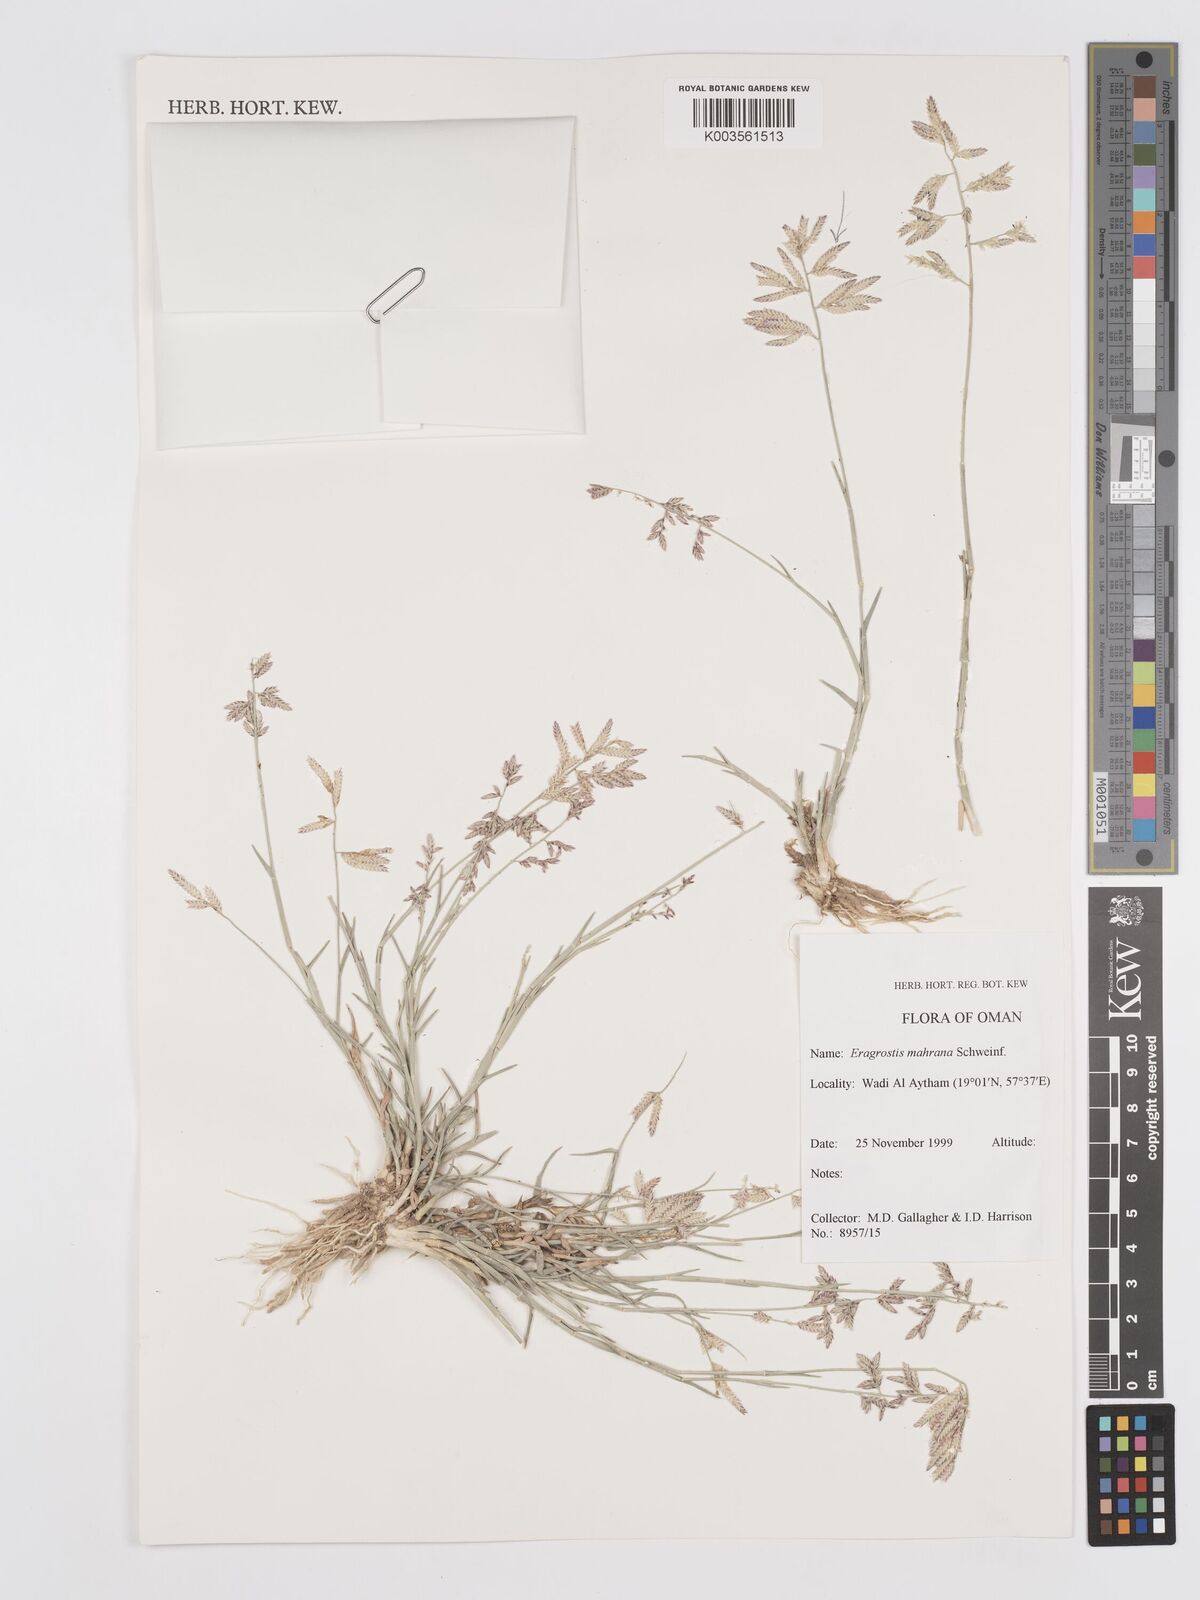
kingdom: Plantae
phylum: Tracheophyta
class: Liliopsida
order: Poales
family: Poaceae
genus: Eragrostis
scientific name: Eragrostis mahrana
